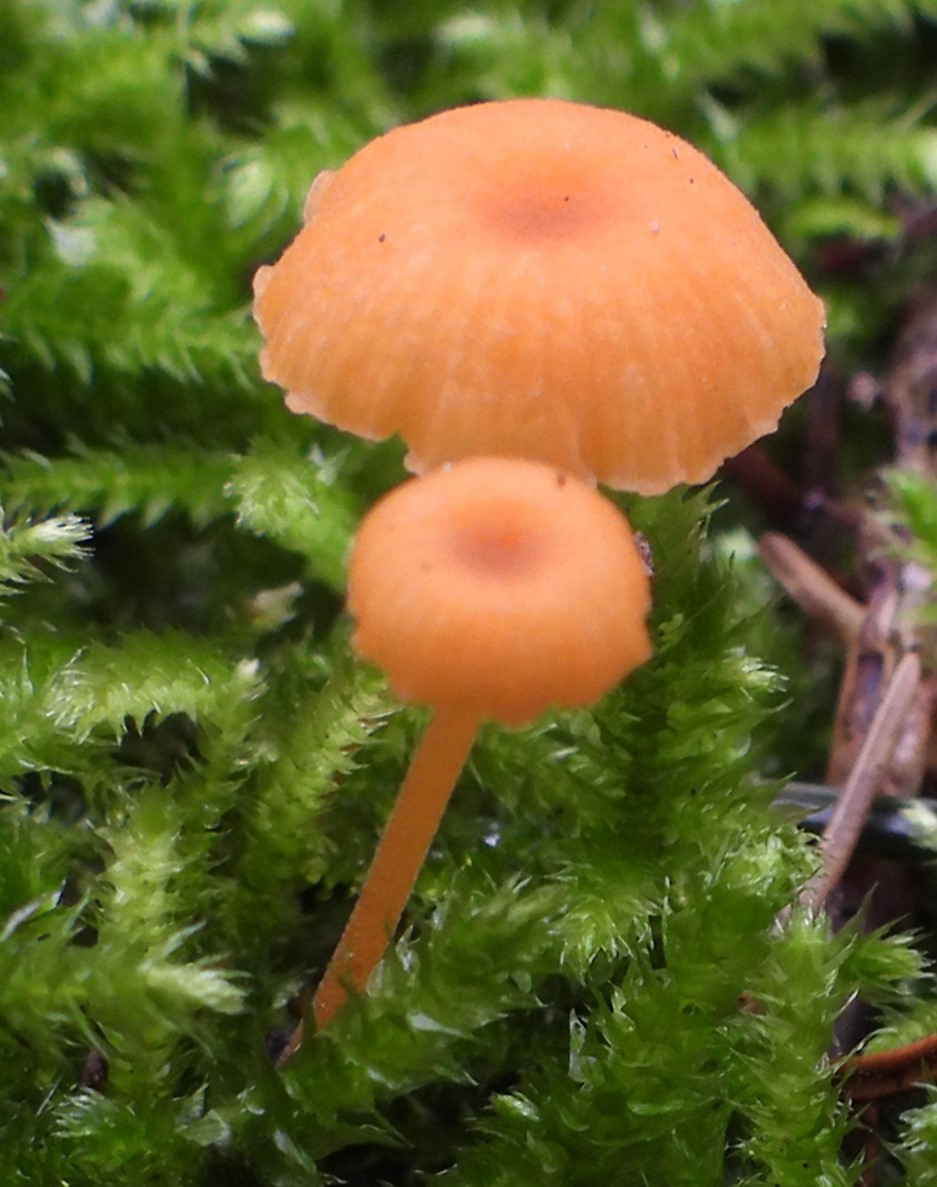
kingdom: Fungi
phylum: Basidiomycota
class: Agaricomycetes
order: Hymenochaetales
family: Rickenellaceae
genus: Rickenella
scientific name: Rickenella fibula
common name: orange mosnavlehat
